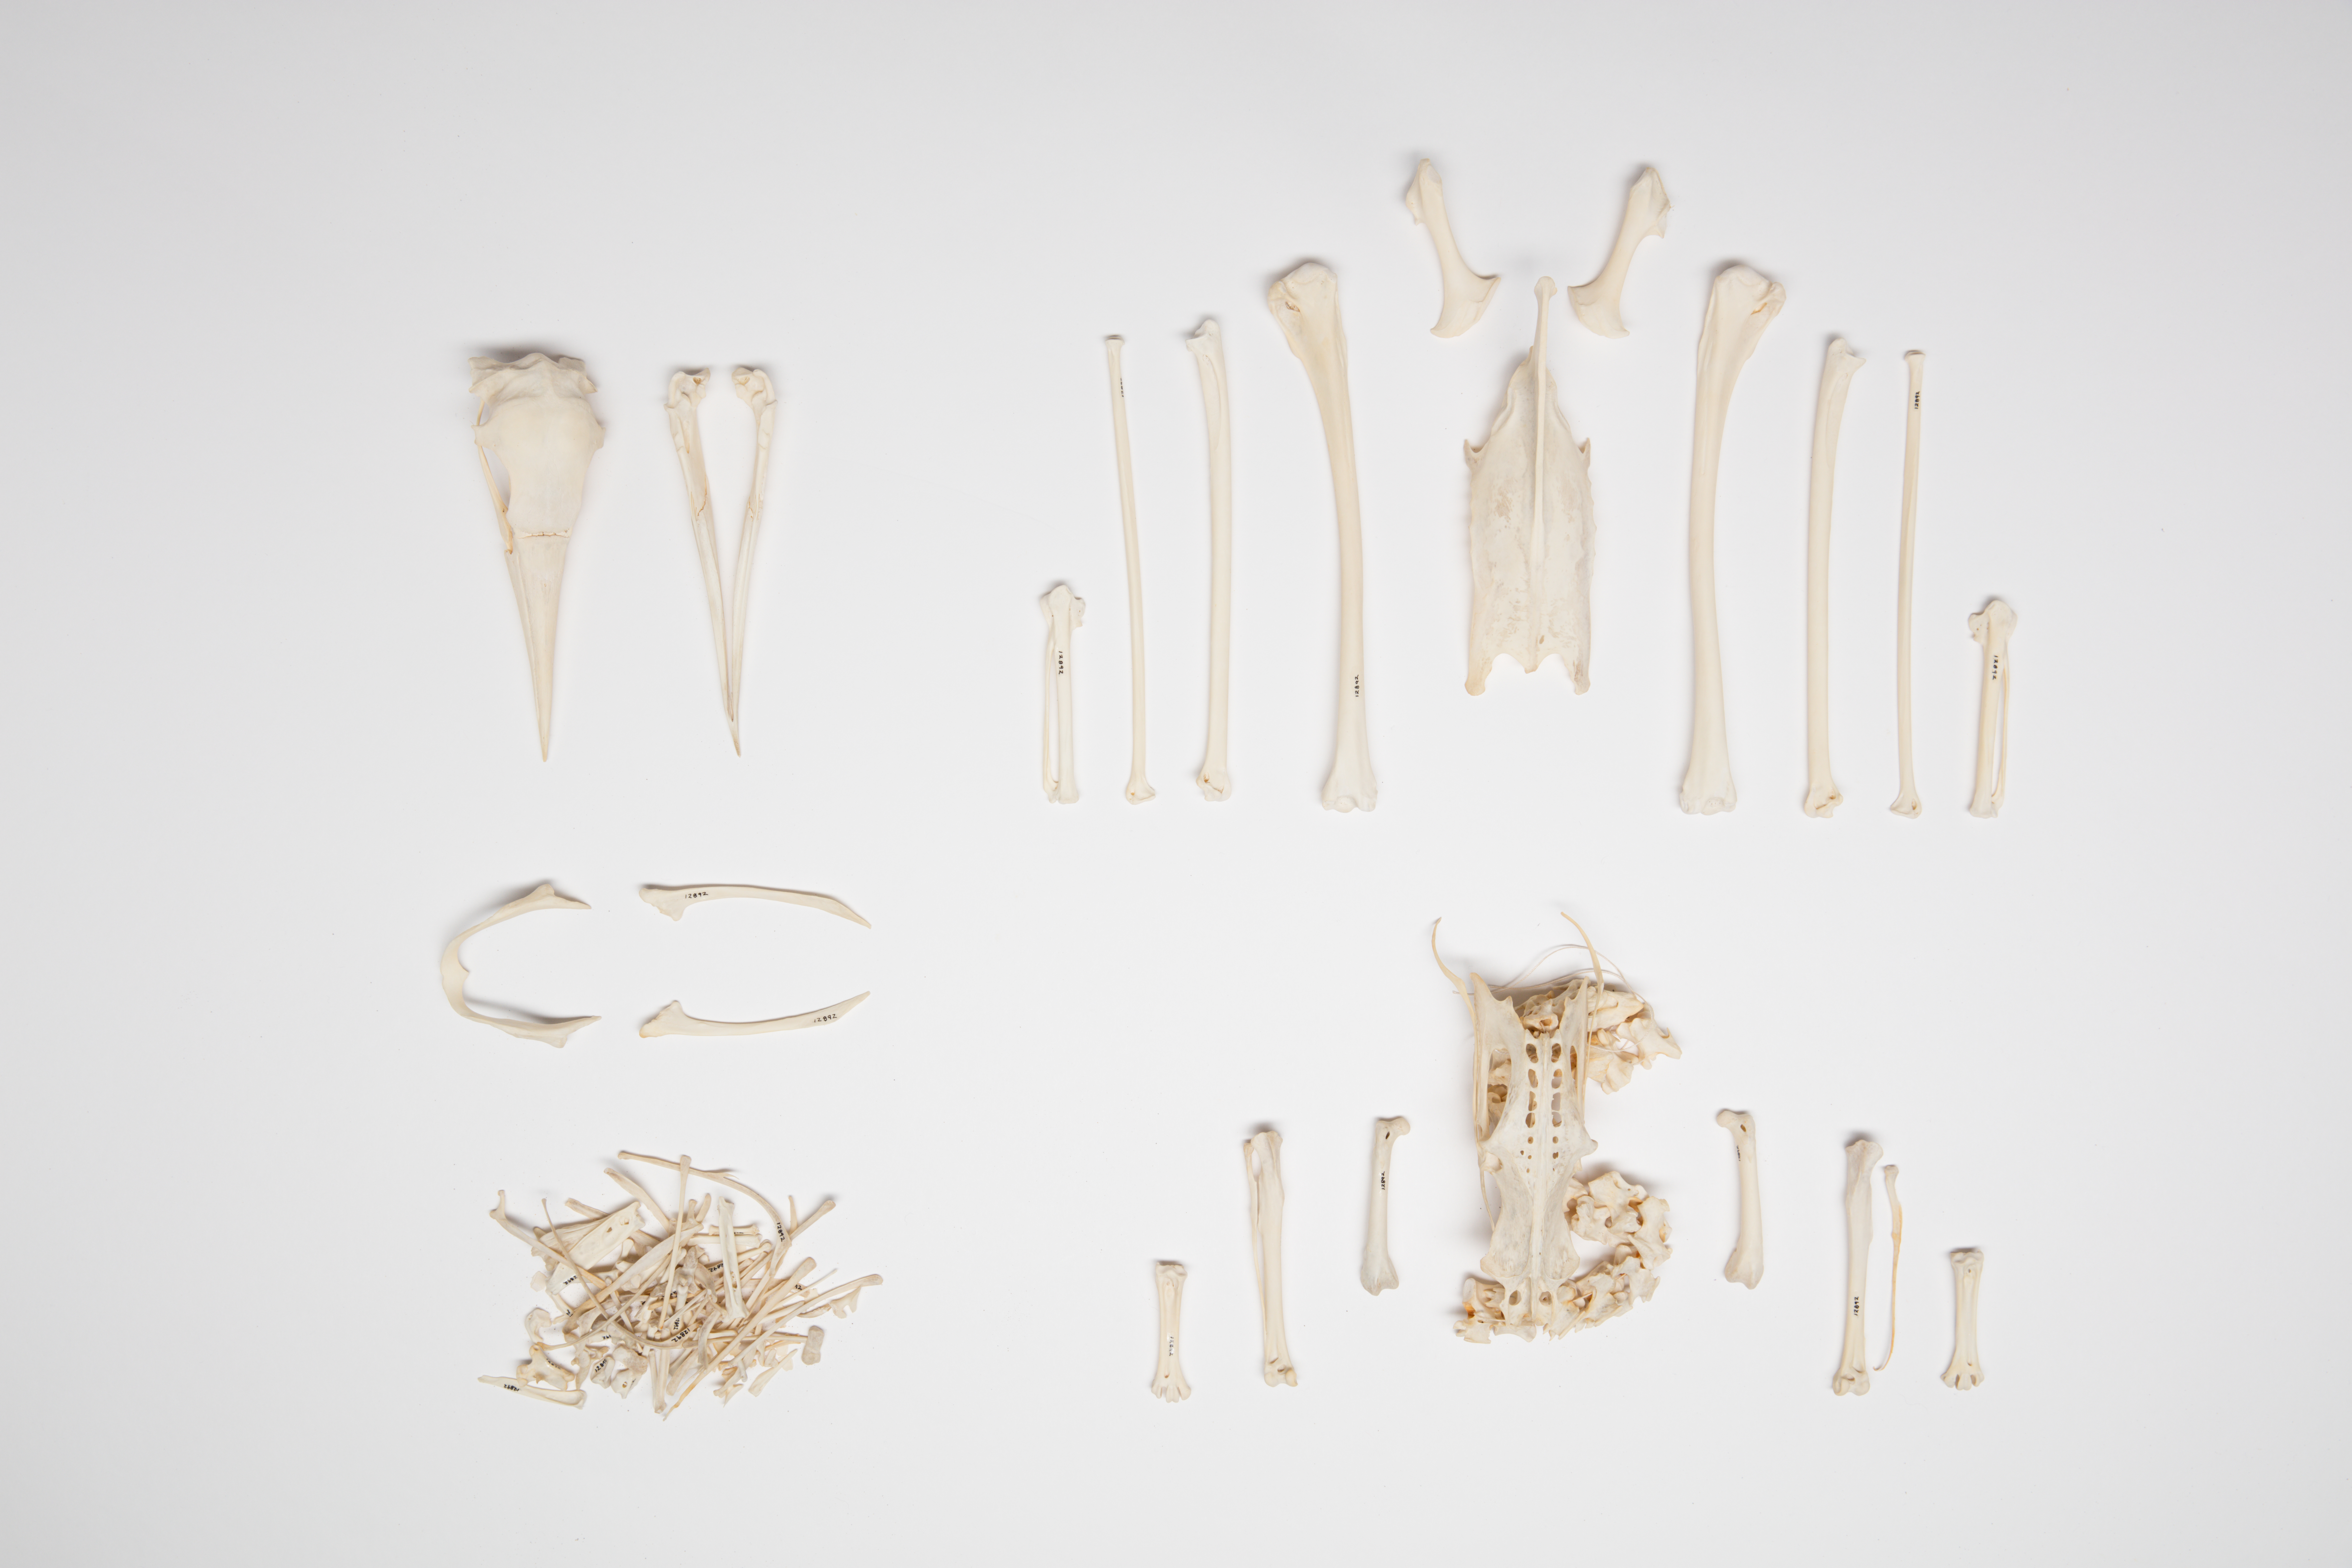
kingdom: Animalia
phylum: Chordata
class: Aves
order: Suliformes
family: Sulidae
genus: Morus
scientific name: Morus serrator
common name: Australasian gannet
